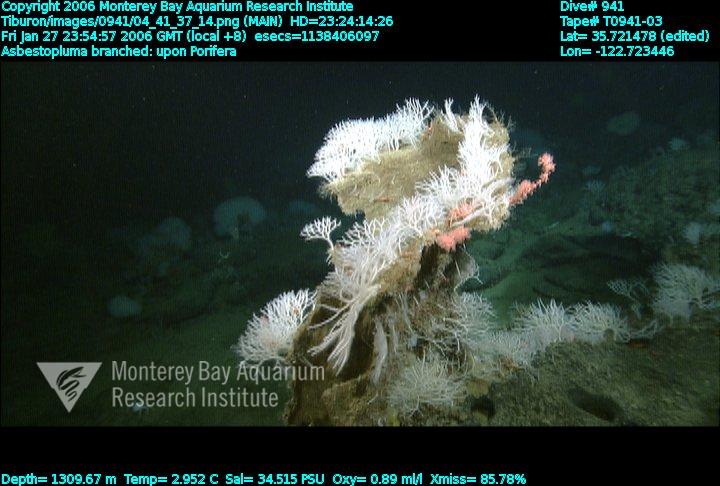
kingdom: Animalia
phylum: Porifera
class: Demospongiae
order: Poecilosclerida
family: Cladorhizidae
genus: Asbestopluma
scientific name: Asbestopluma monticola
